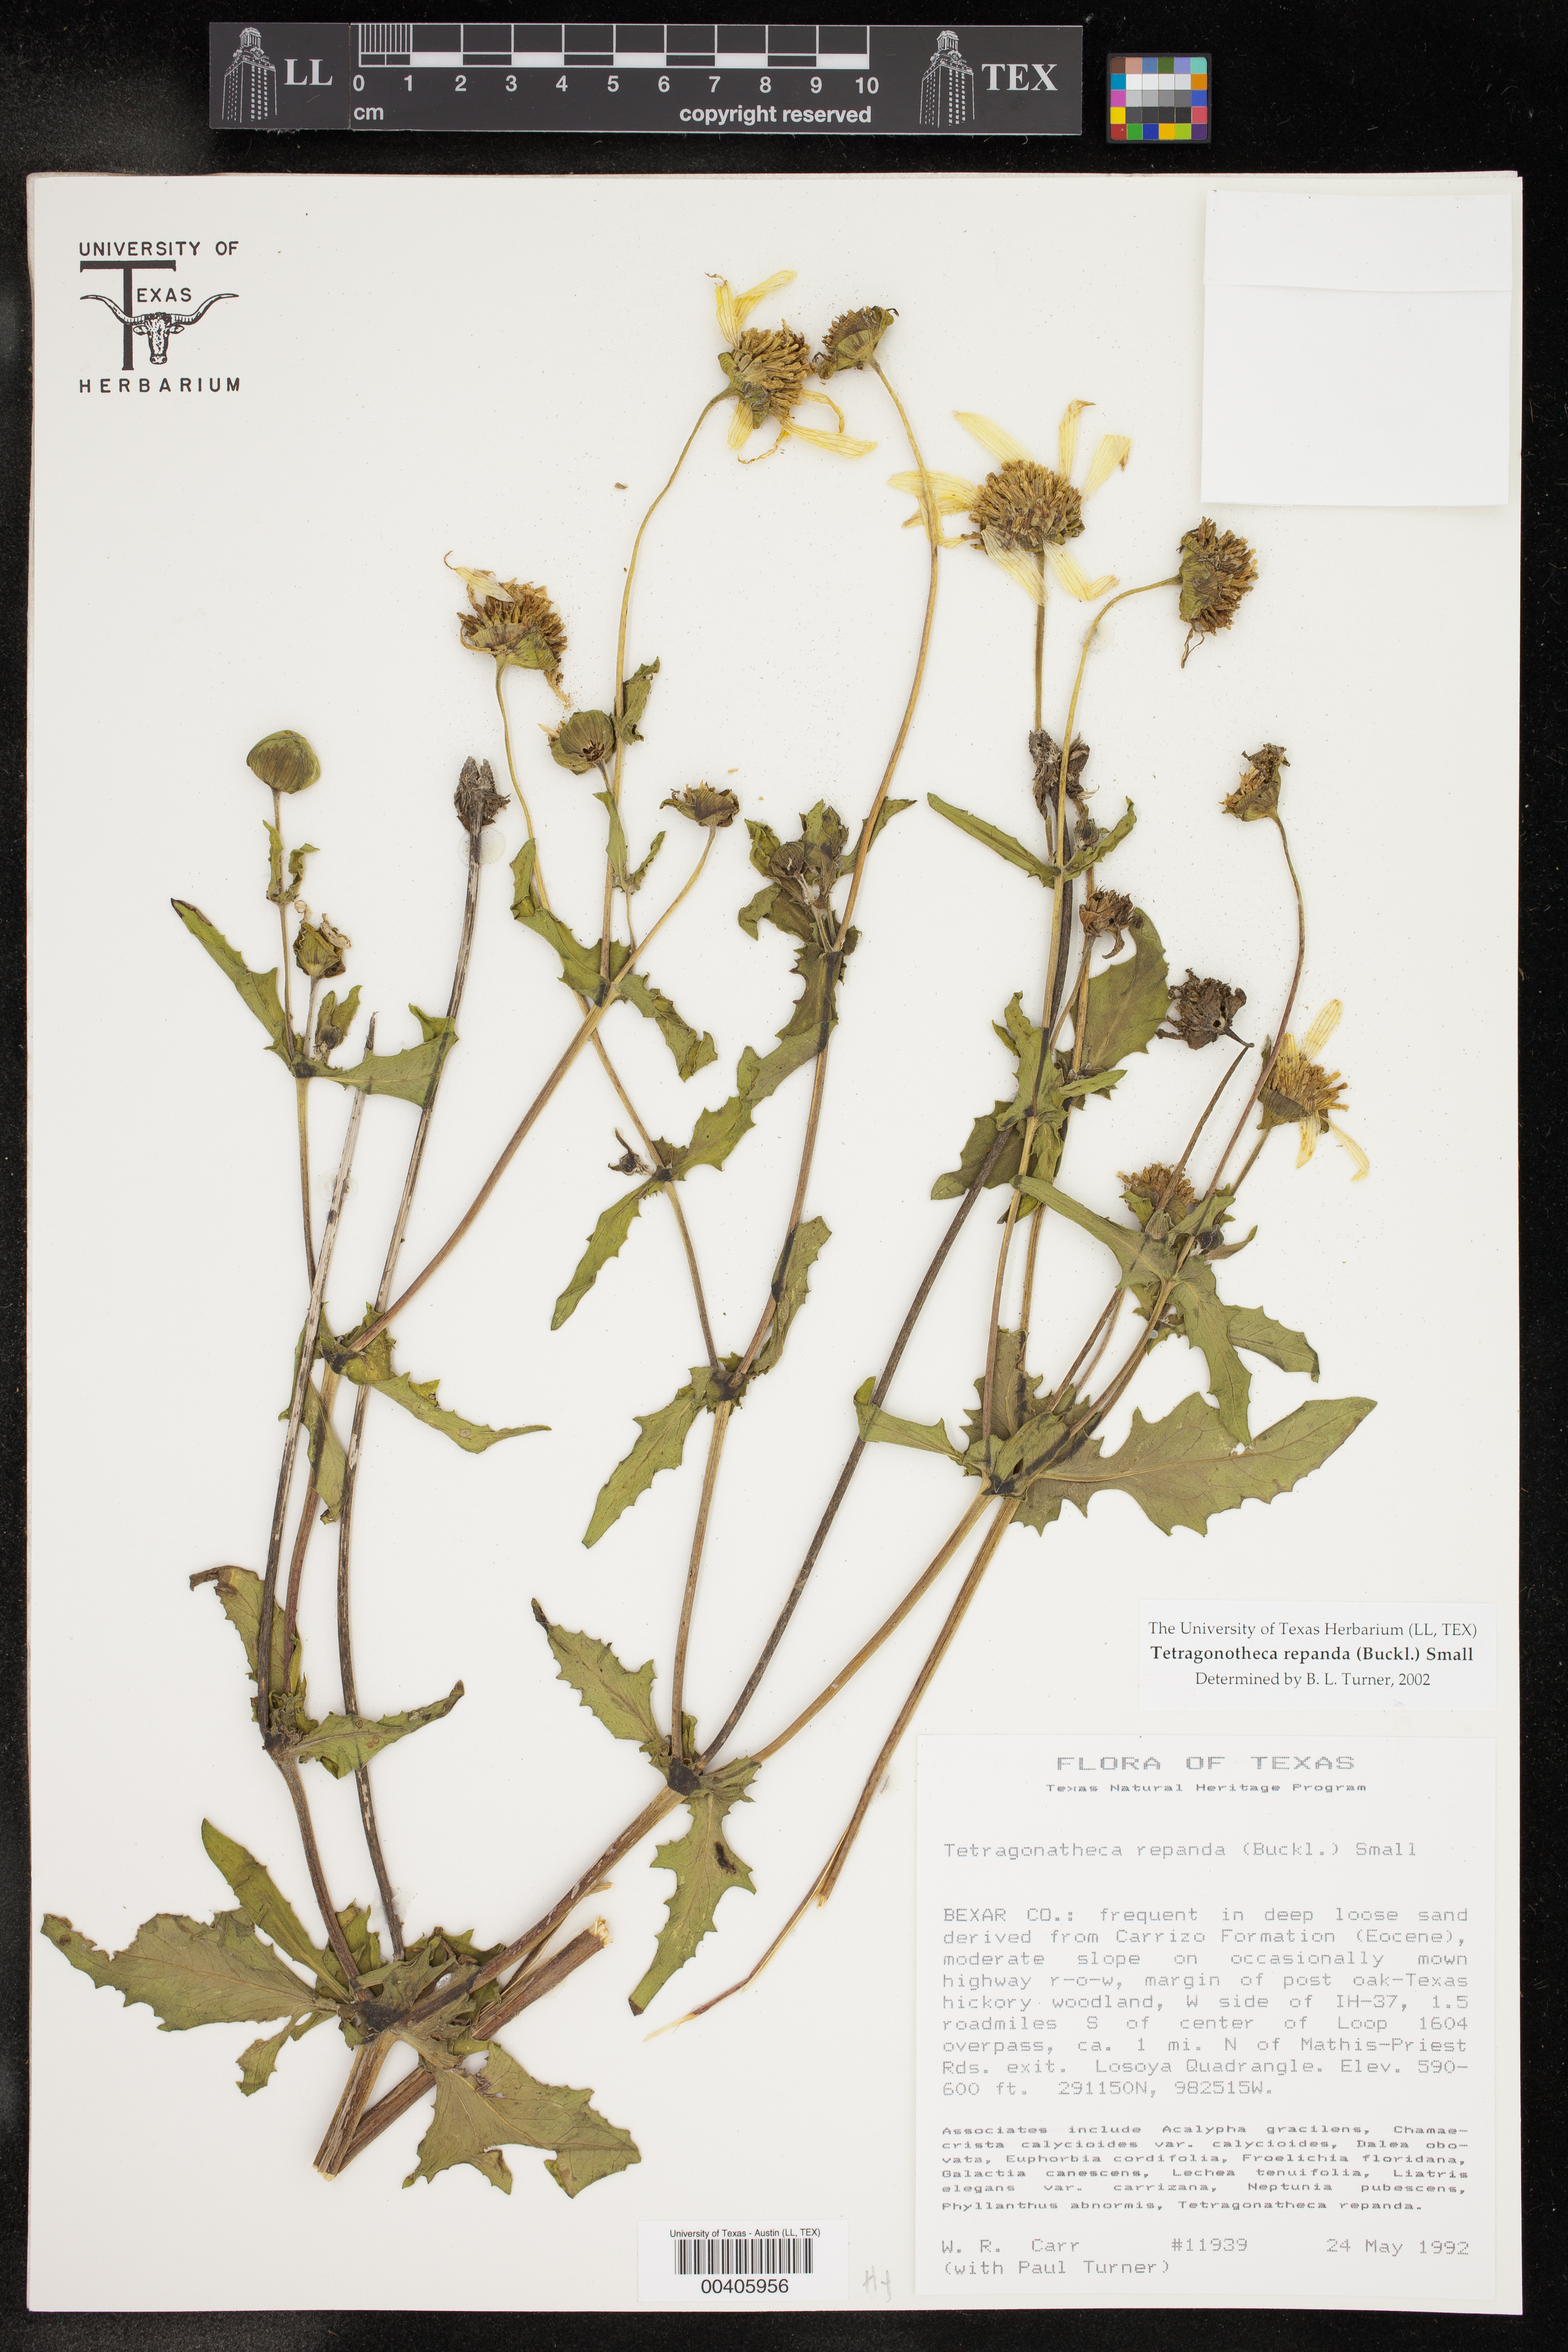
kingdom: Plantae
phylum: Tracheophyta
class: Magnoliopsida
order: Asterales
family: Asteraceae
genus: Tetragonotheca
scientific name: Tetragonotheca repanda
